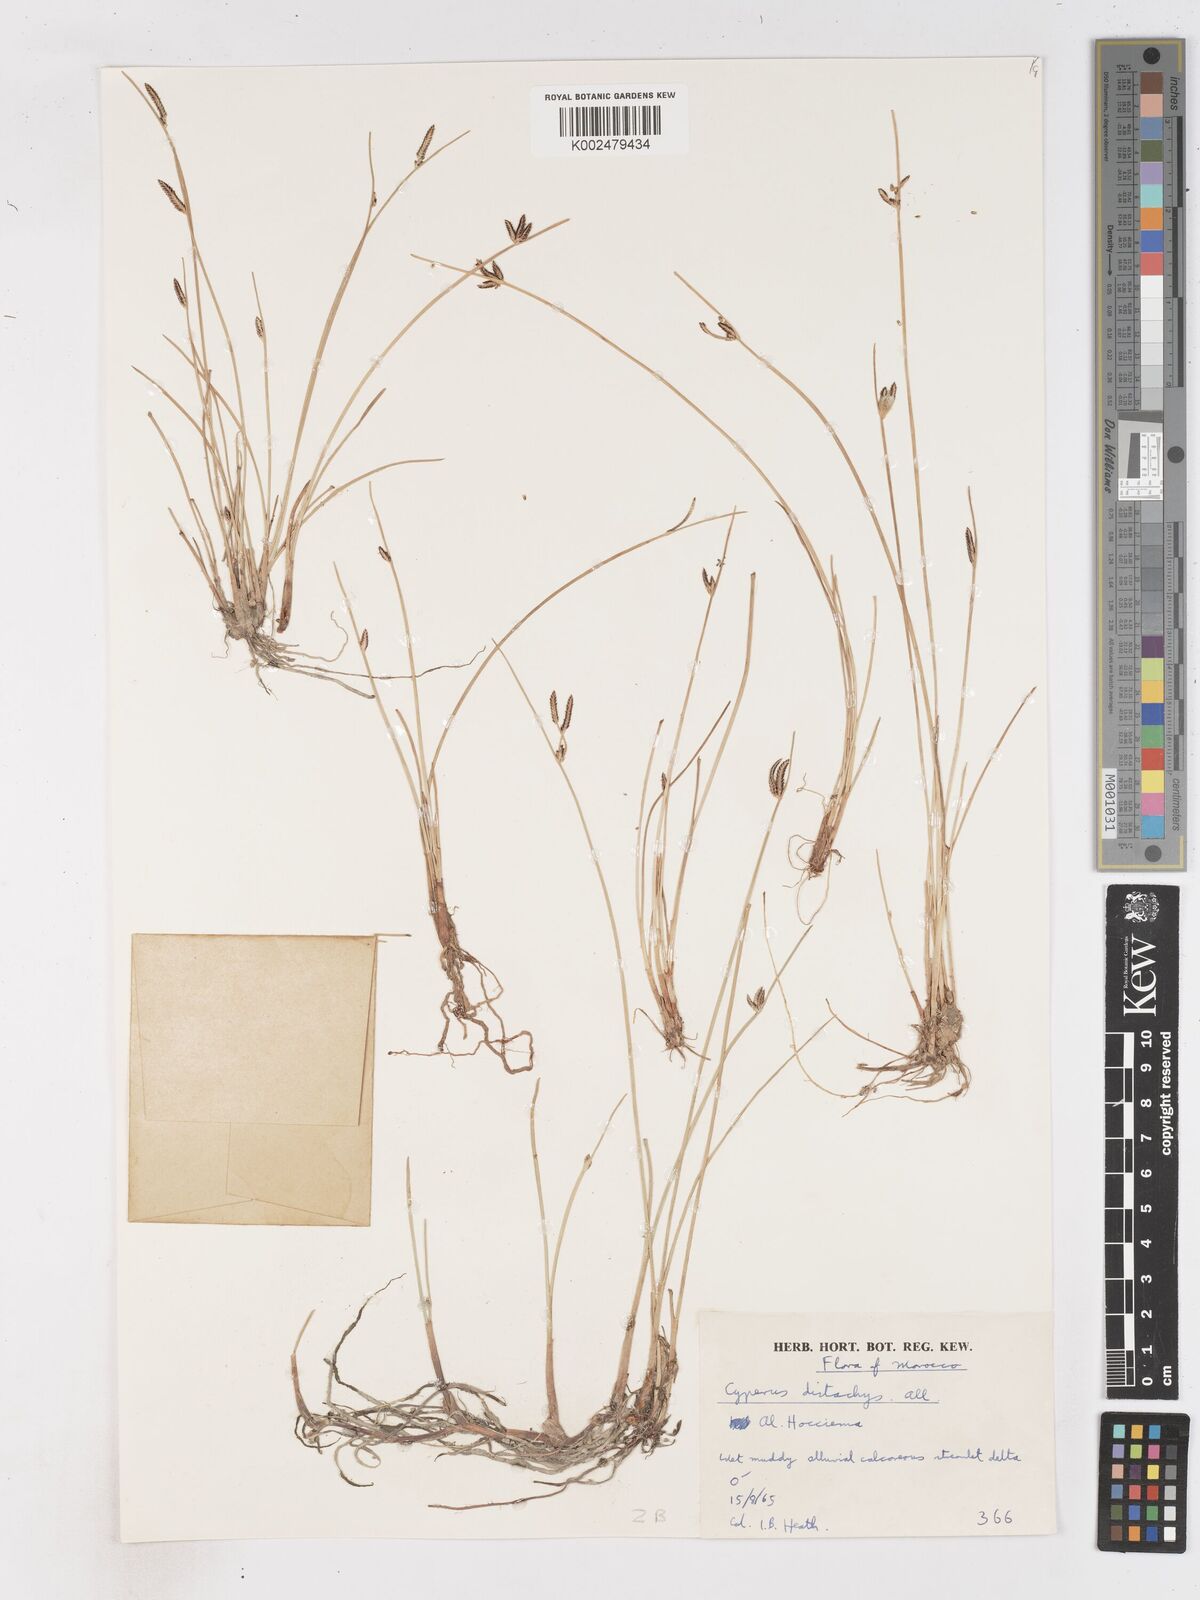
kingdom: Plantae
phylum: Tracheophyta
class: Liliopsida
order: Poales
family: Cyperaceae
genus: Cyperus
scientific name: Cyperus laevigatus
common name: Smooth flat sedge
